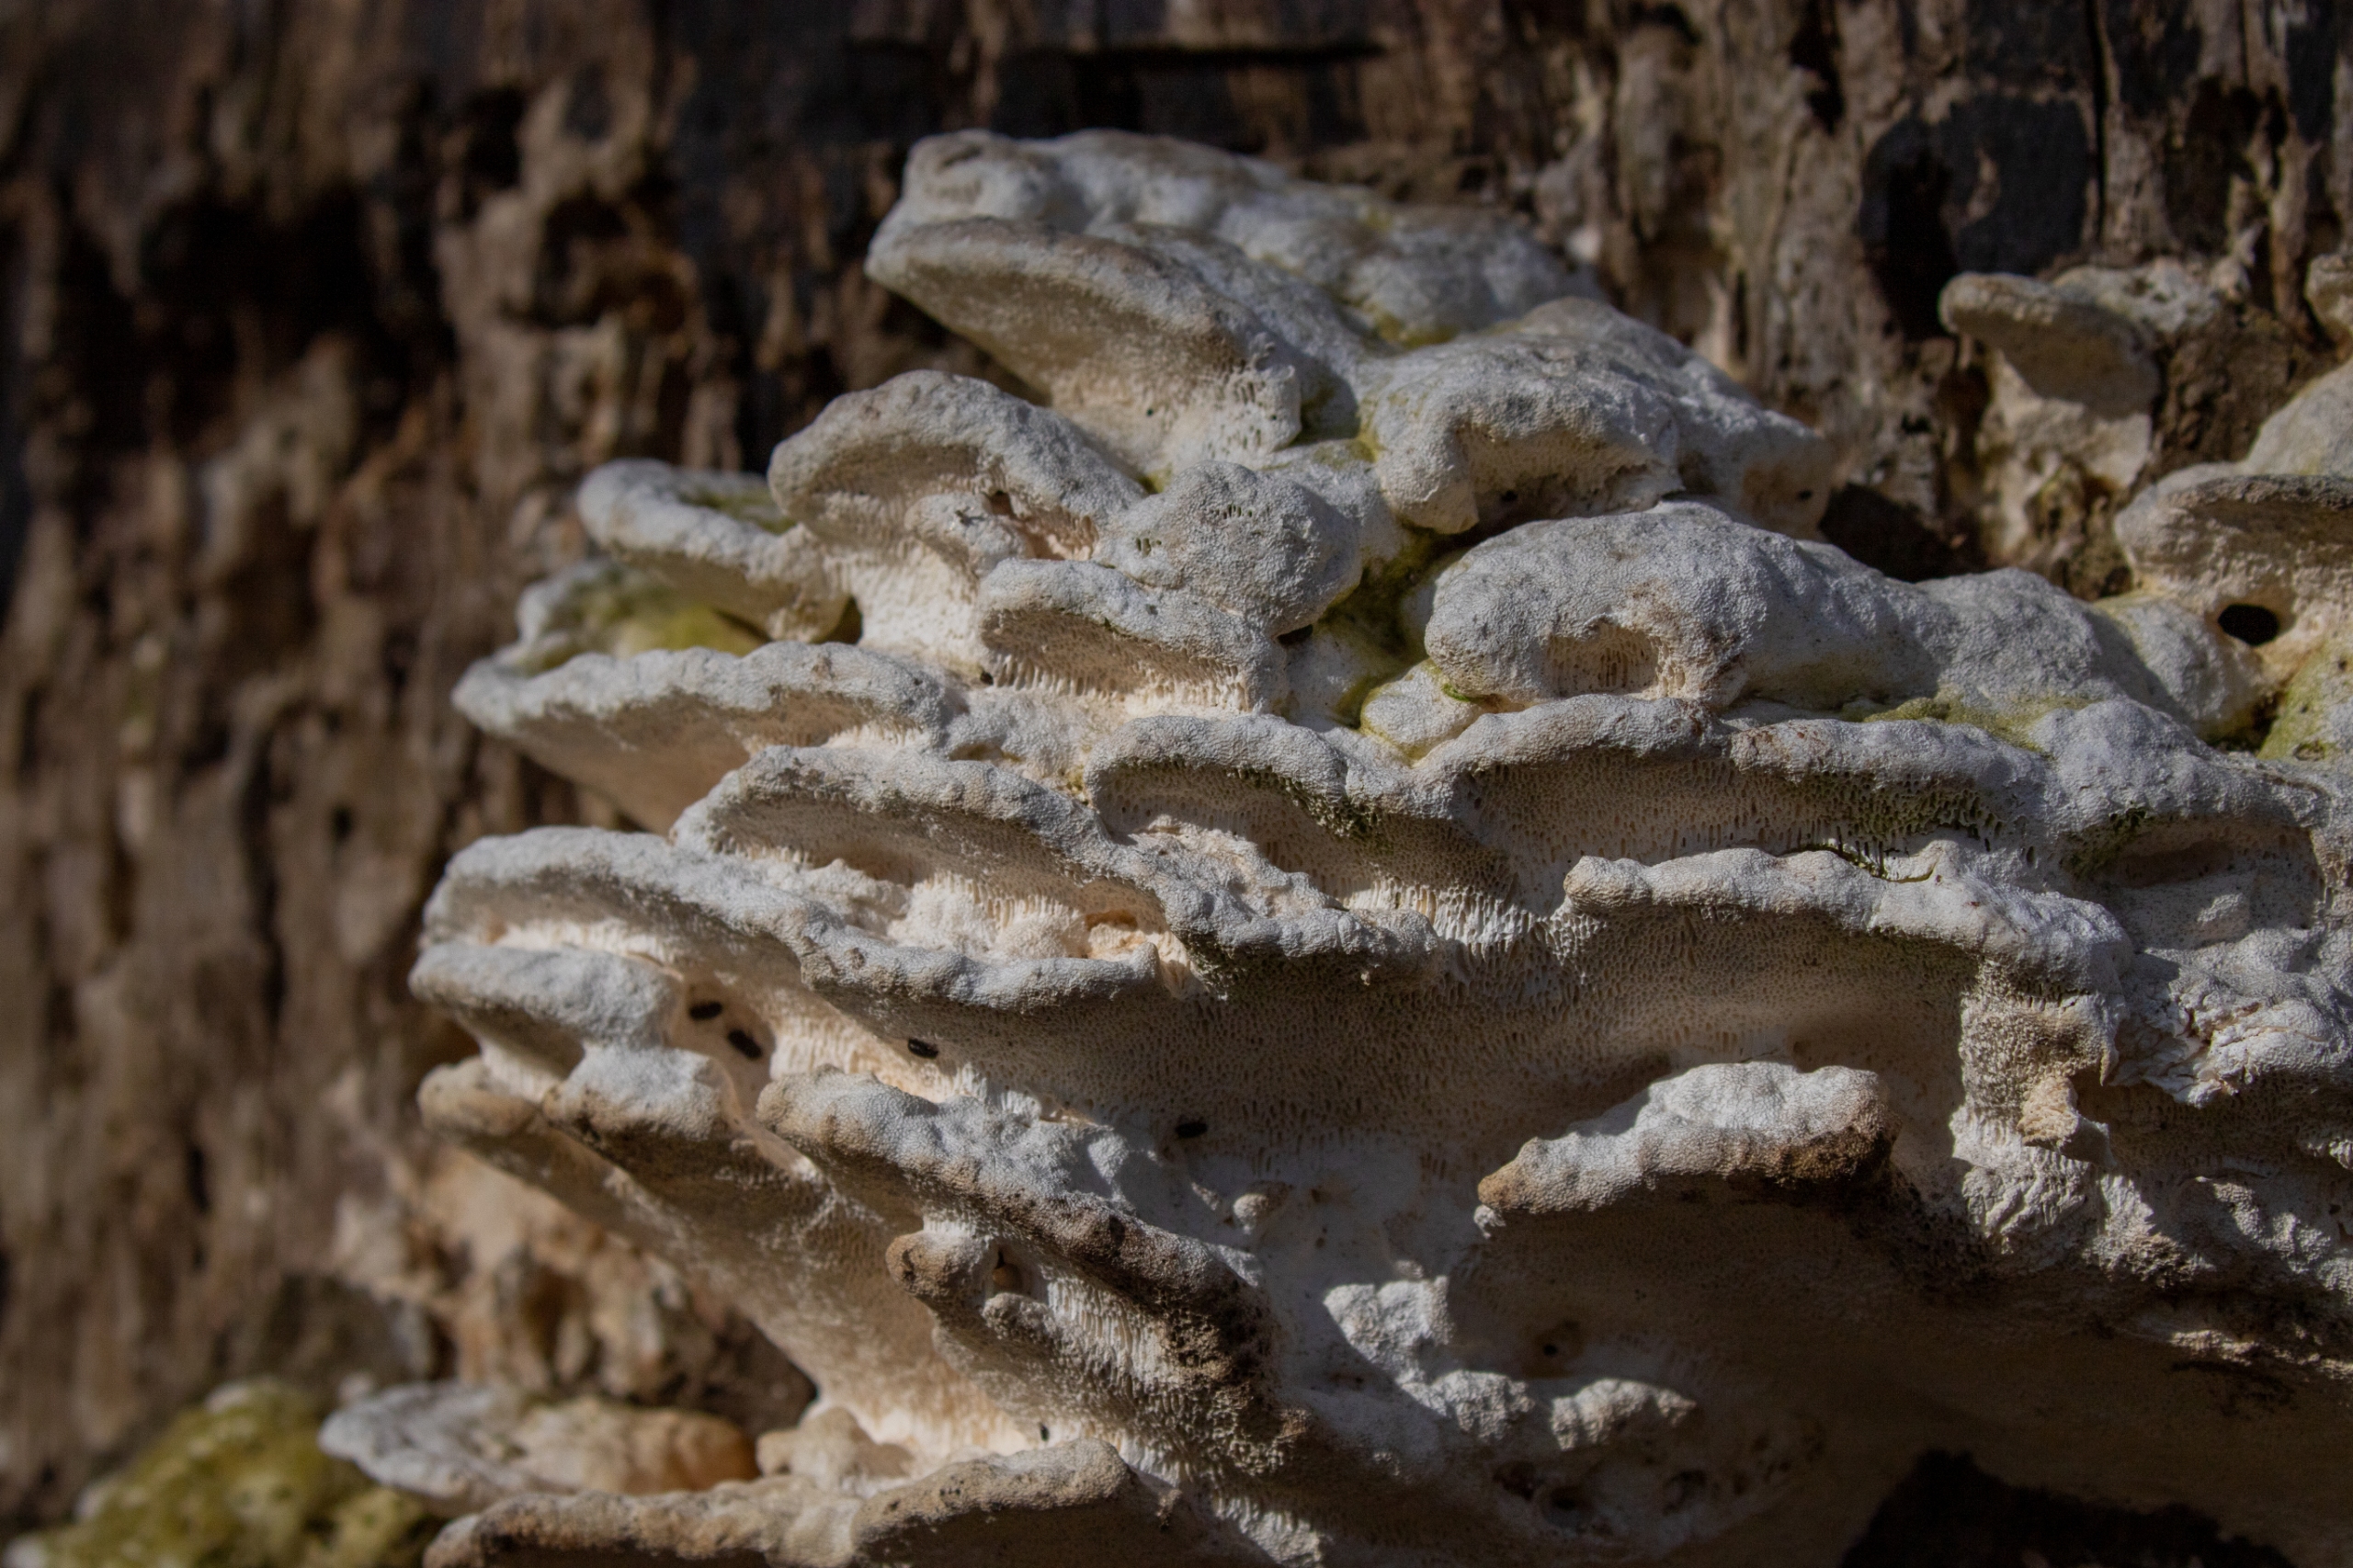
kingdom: Fungi
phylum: Basidiomycota
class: Agaricomycetes
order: Polyporales
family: Polyporaceae
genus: Trametes
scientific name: Trametes hirsuta
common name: Håret læderporesvamp
